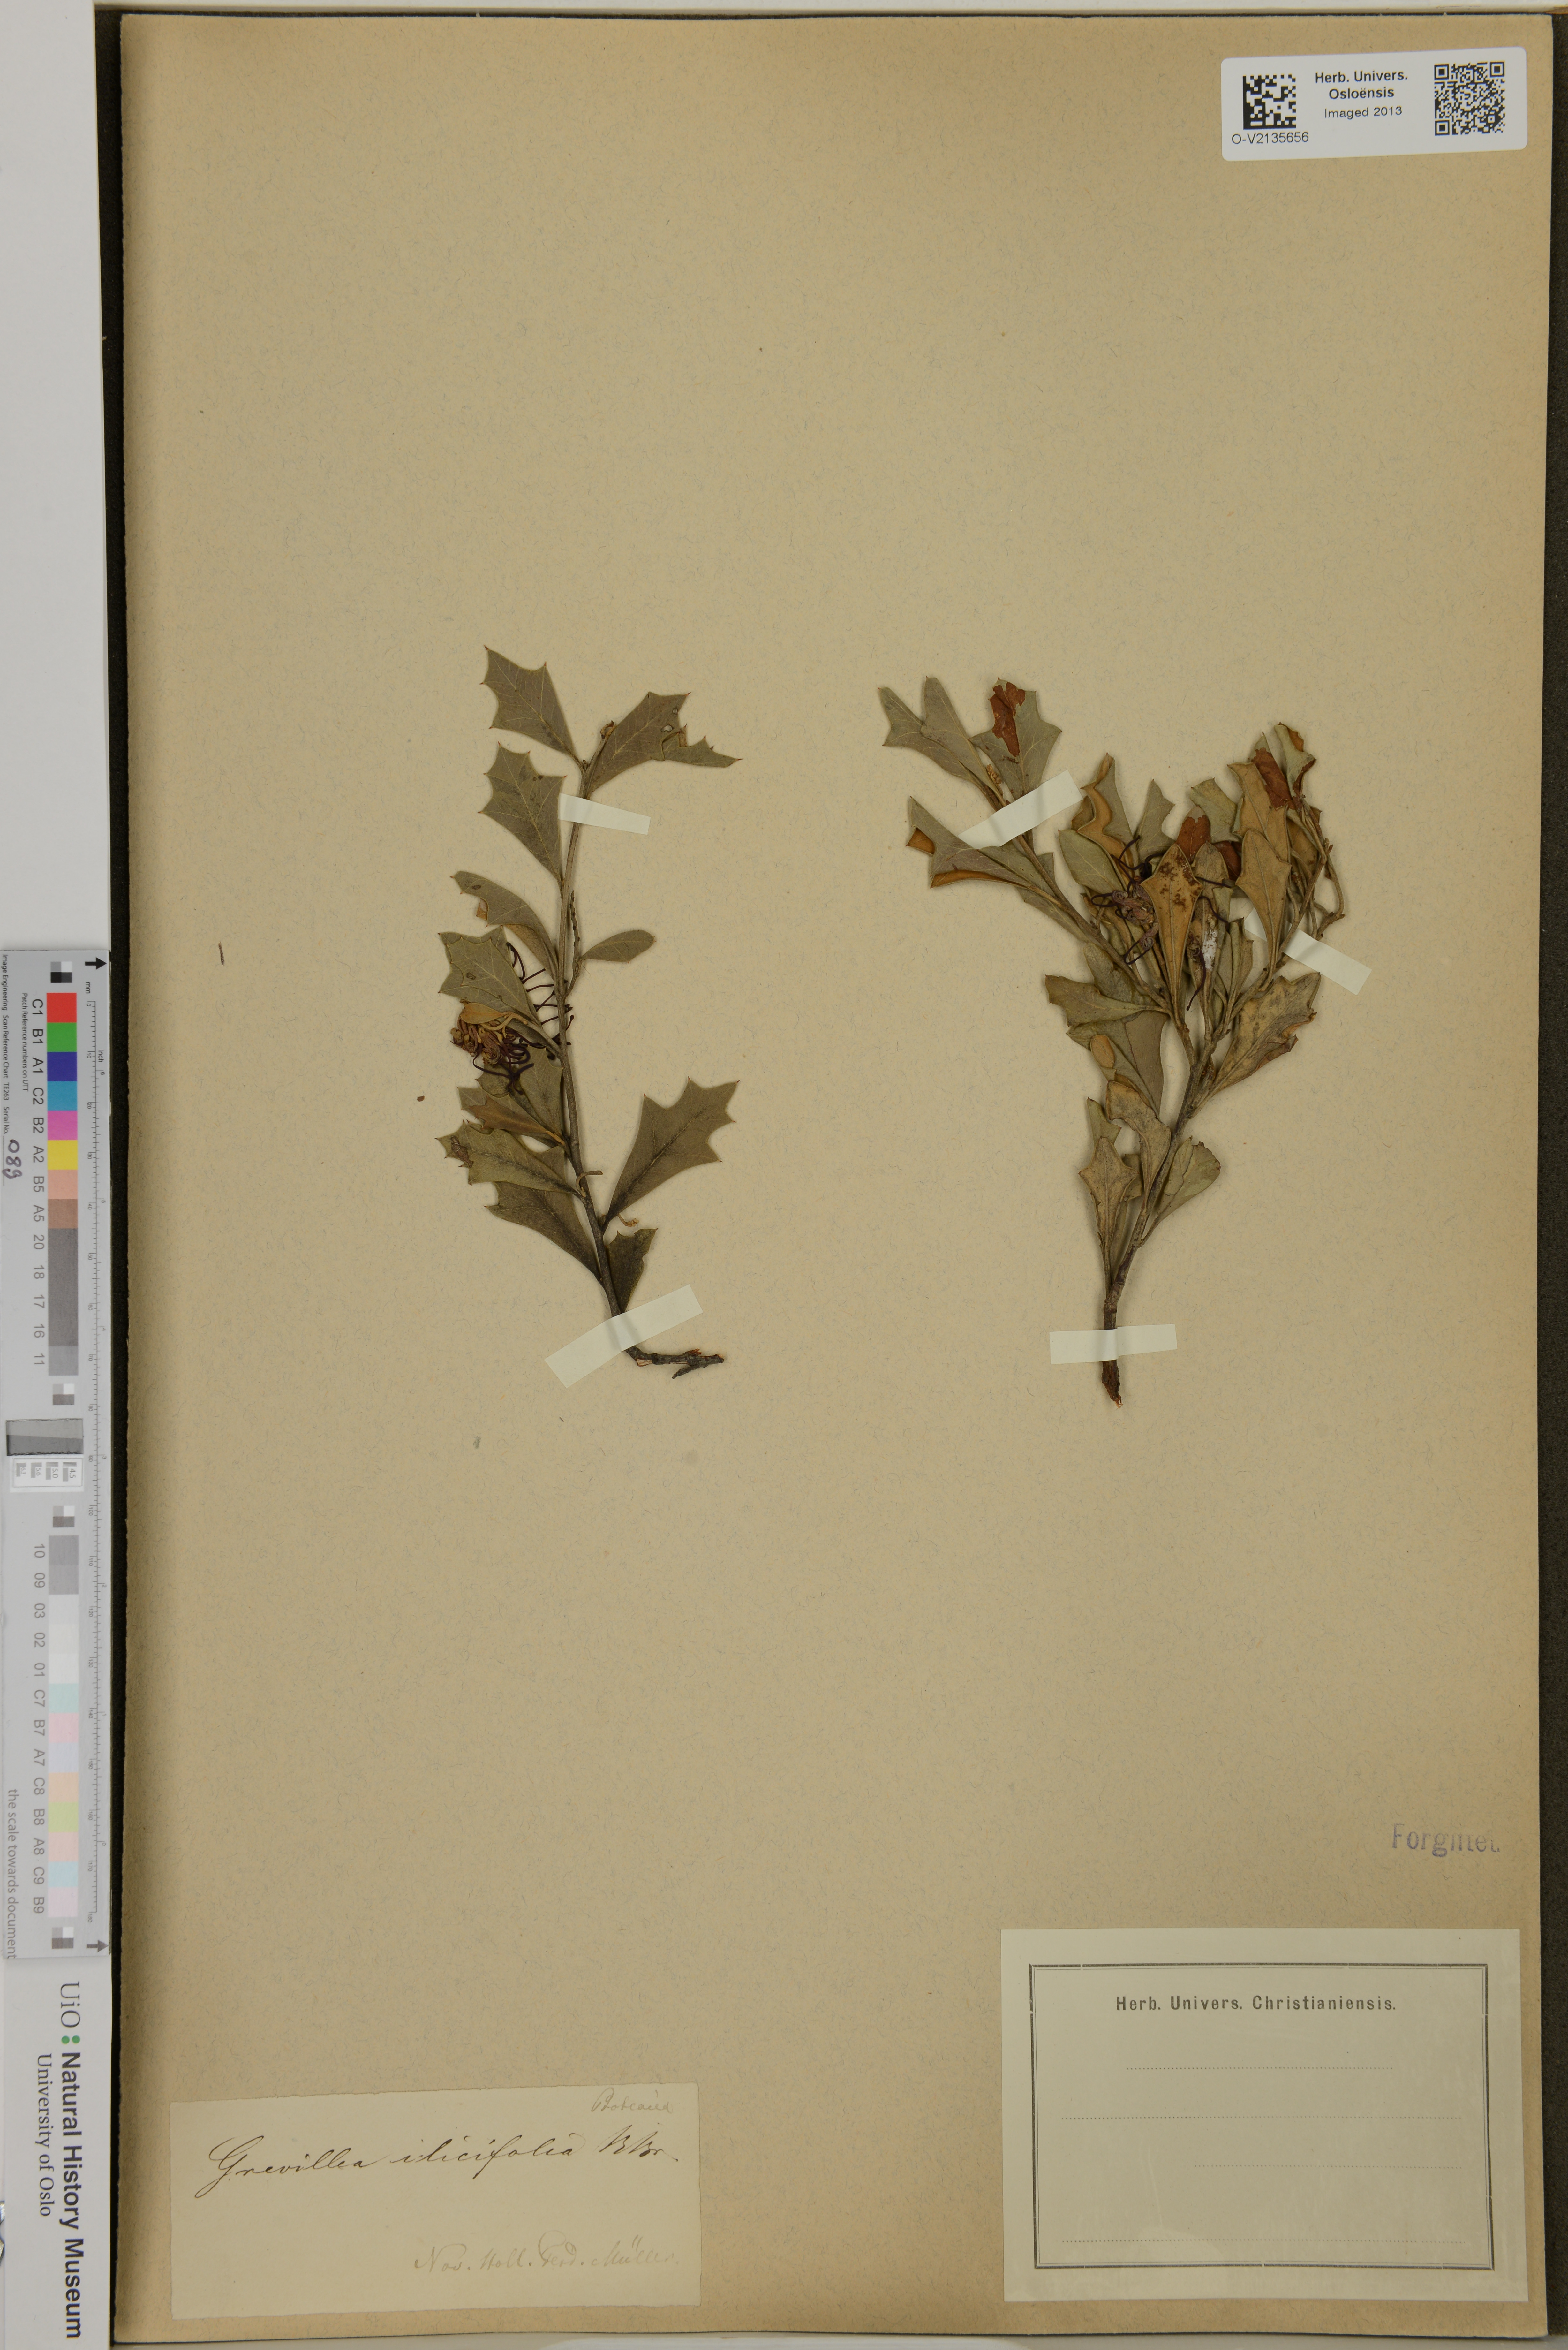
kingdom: Plantae
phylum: Tracheophyta
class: Magnoliopsida
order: Proteales
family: Proteaceae
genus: Grevillea
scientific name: Grevillea ilicifolia
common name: Holly grevillea
